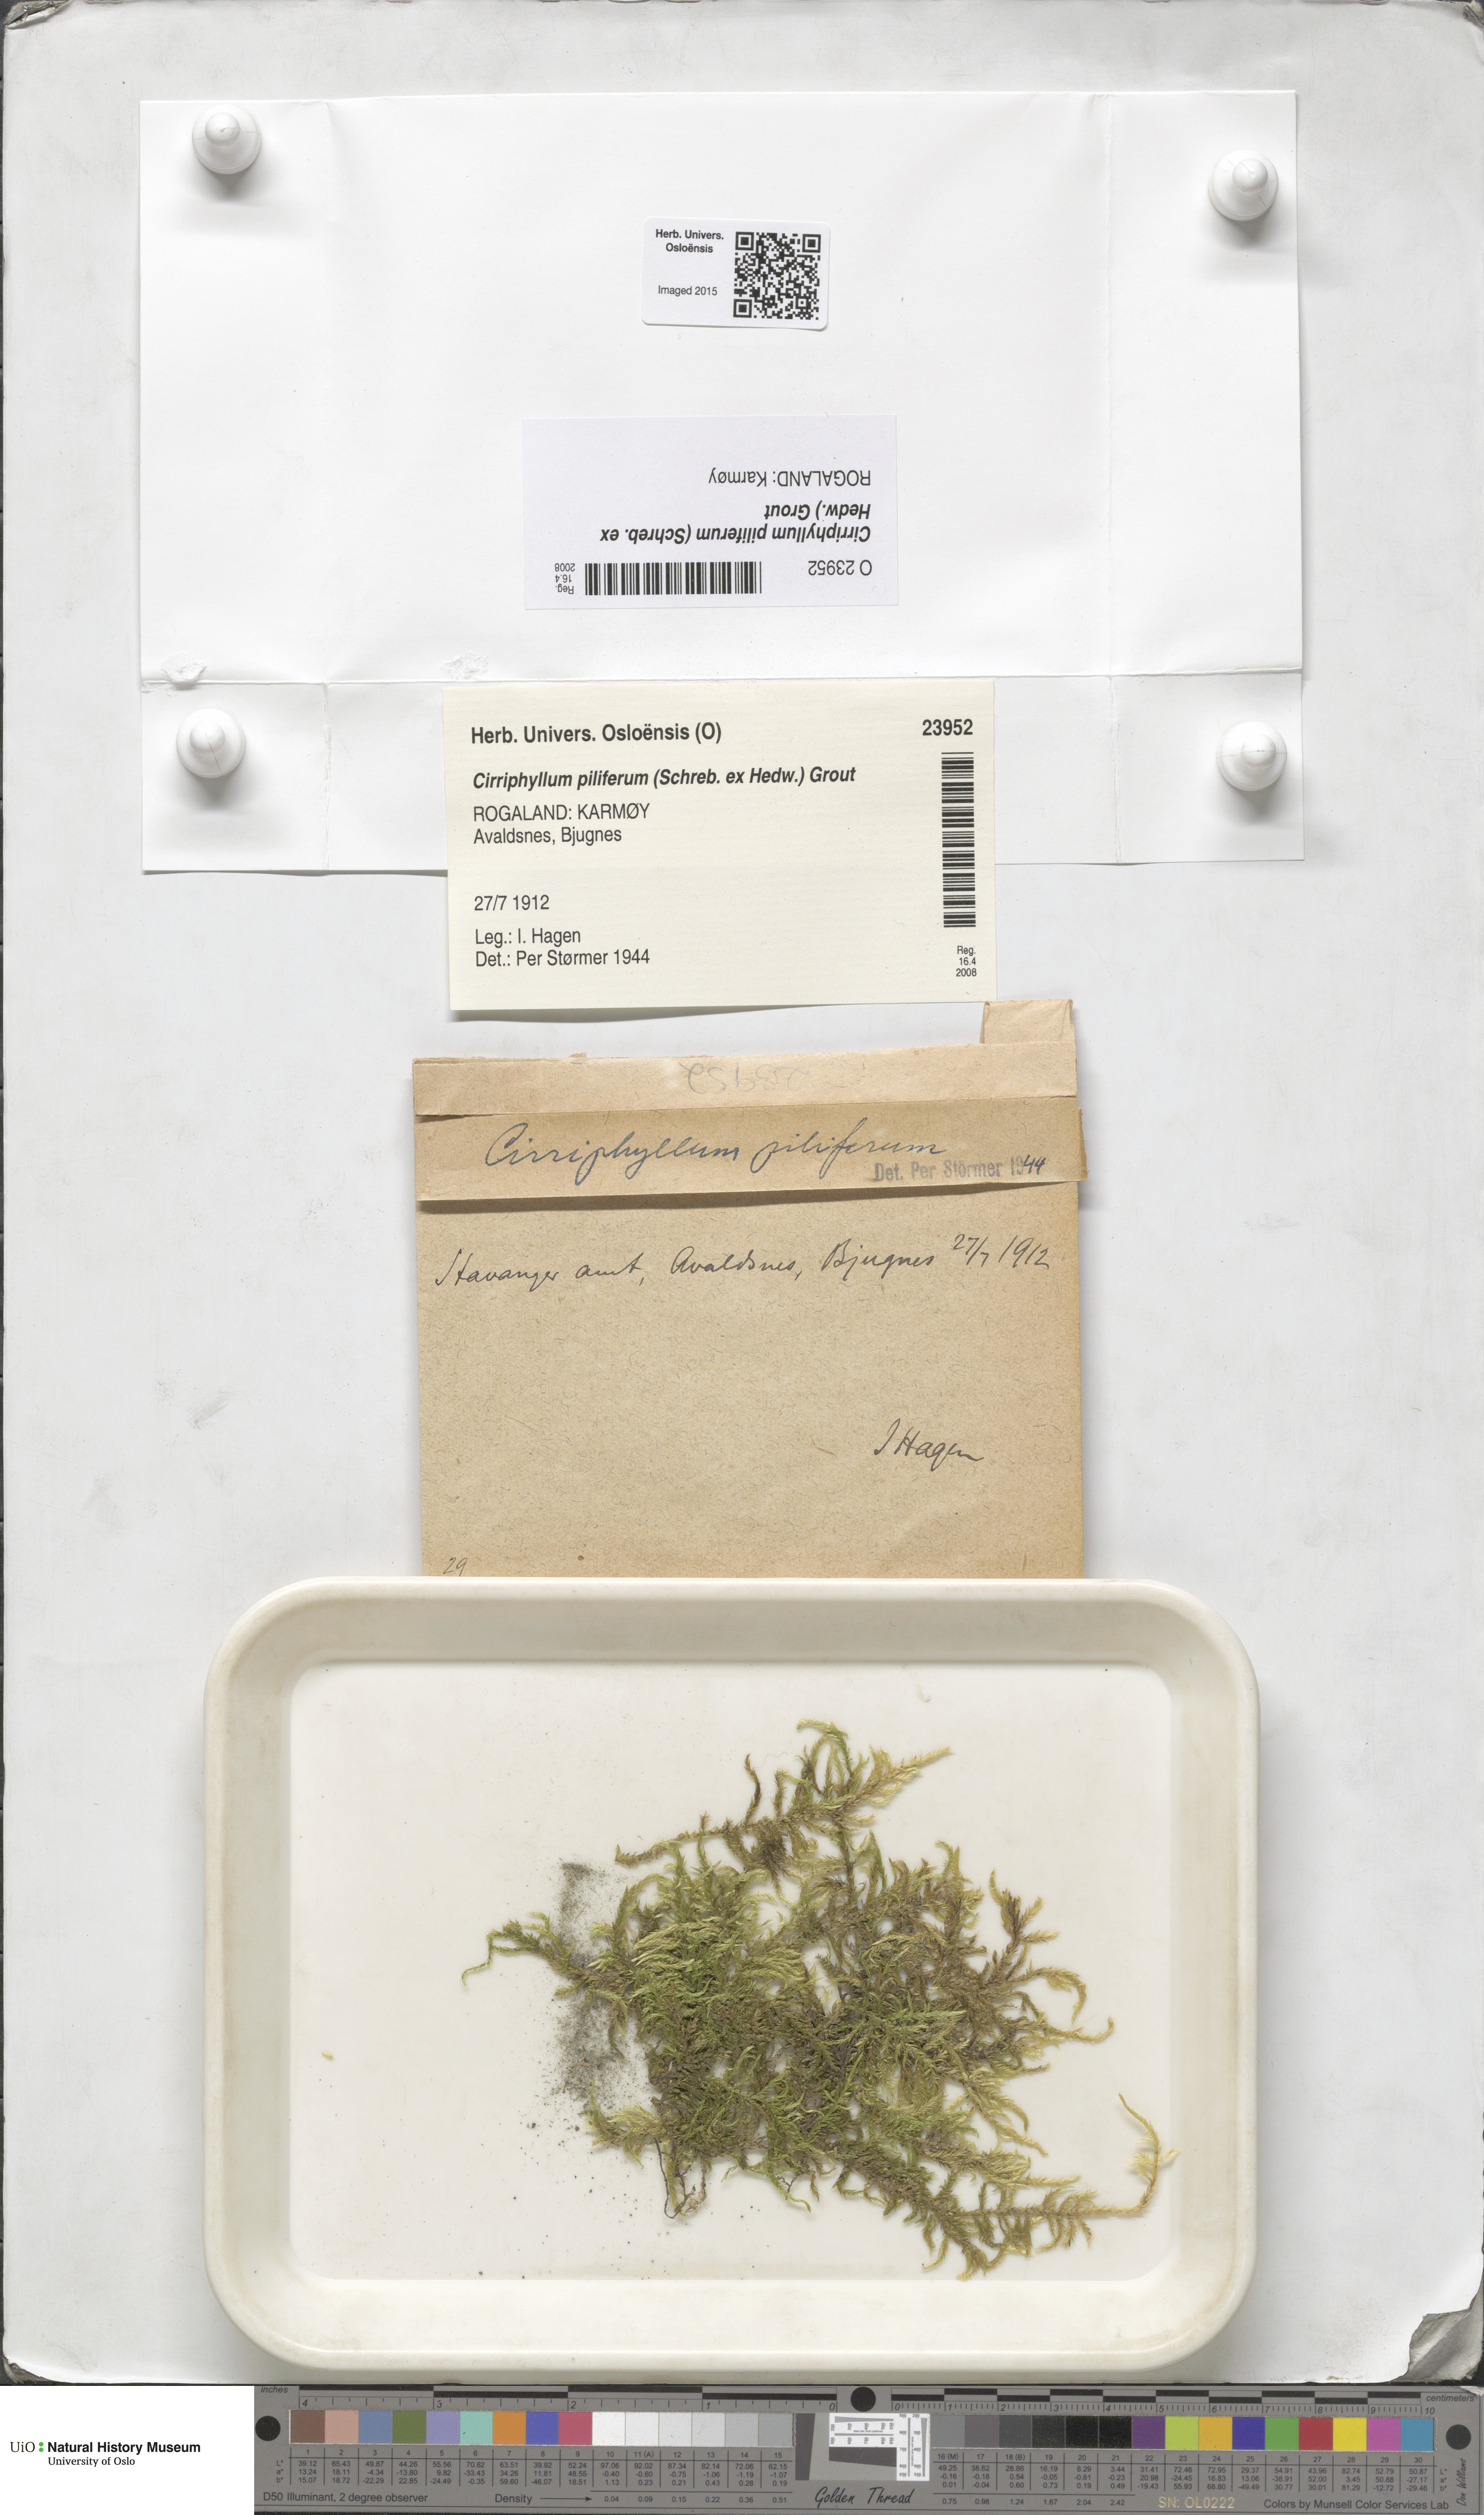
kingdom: Plantae
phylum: Bryophyta
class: Bryopsida
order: Hypnales
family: Brachytheciaceae
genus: Cirriphyllum
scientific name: Cirriphyllum piliferum
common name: Hair-pointed moss
